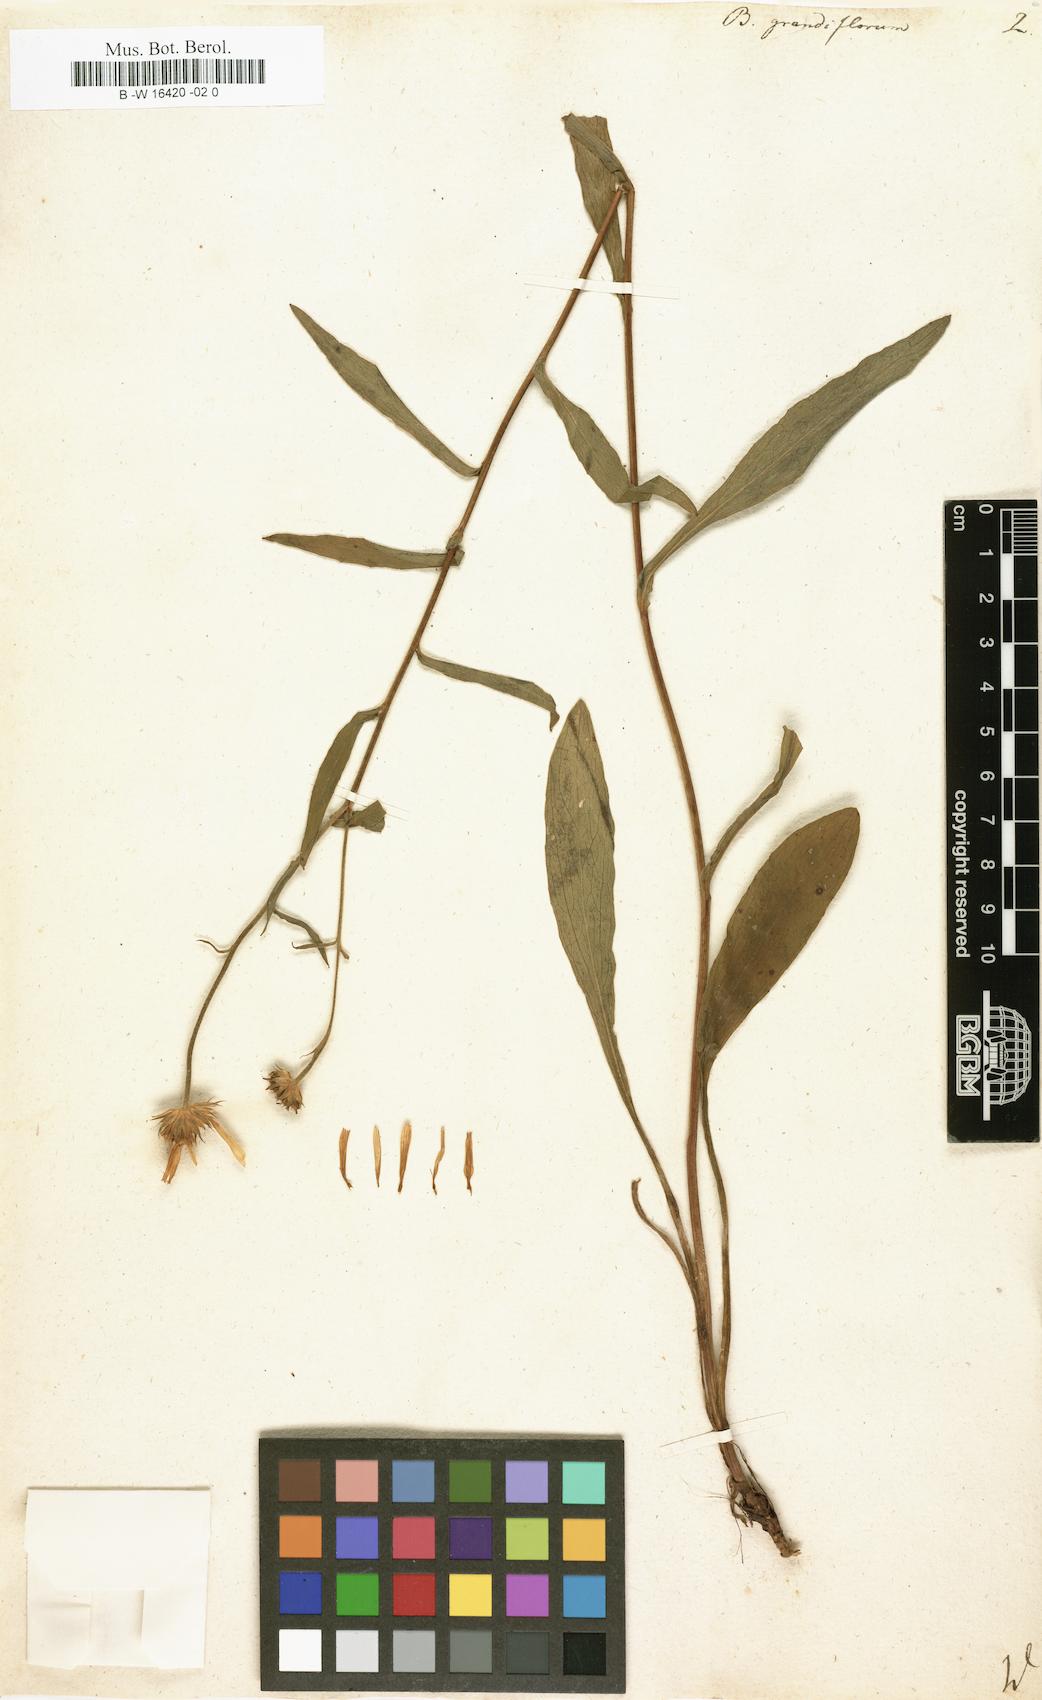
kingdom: Plantae
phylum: Tracheophyta
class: Magnoliopsida
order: Asterales
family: Asteraceae
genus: Buphthalmum
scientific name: Buphthalmum salicifolium
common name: Willow-leaved yellow-oxeye
